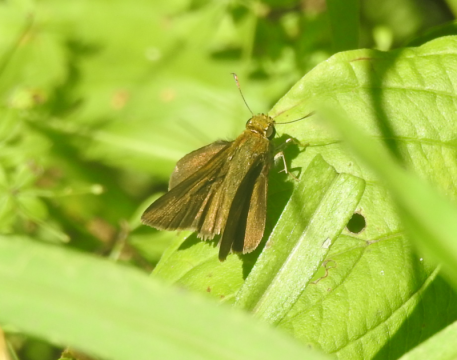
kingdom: Animalia
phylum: Arthropoda
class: Insecta
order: Lepidoptera
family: Hesperiidae
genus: Euphyes
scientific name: Euphyes vestris
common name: Dun Skipper
